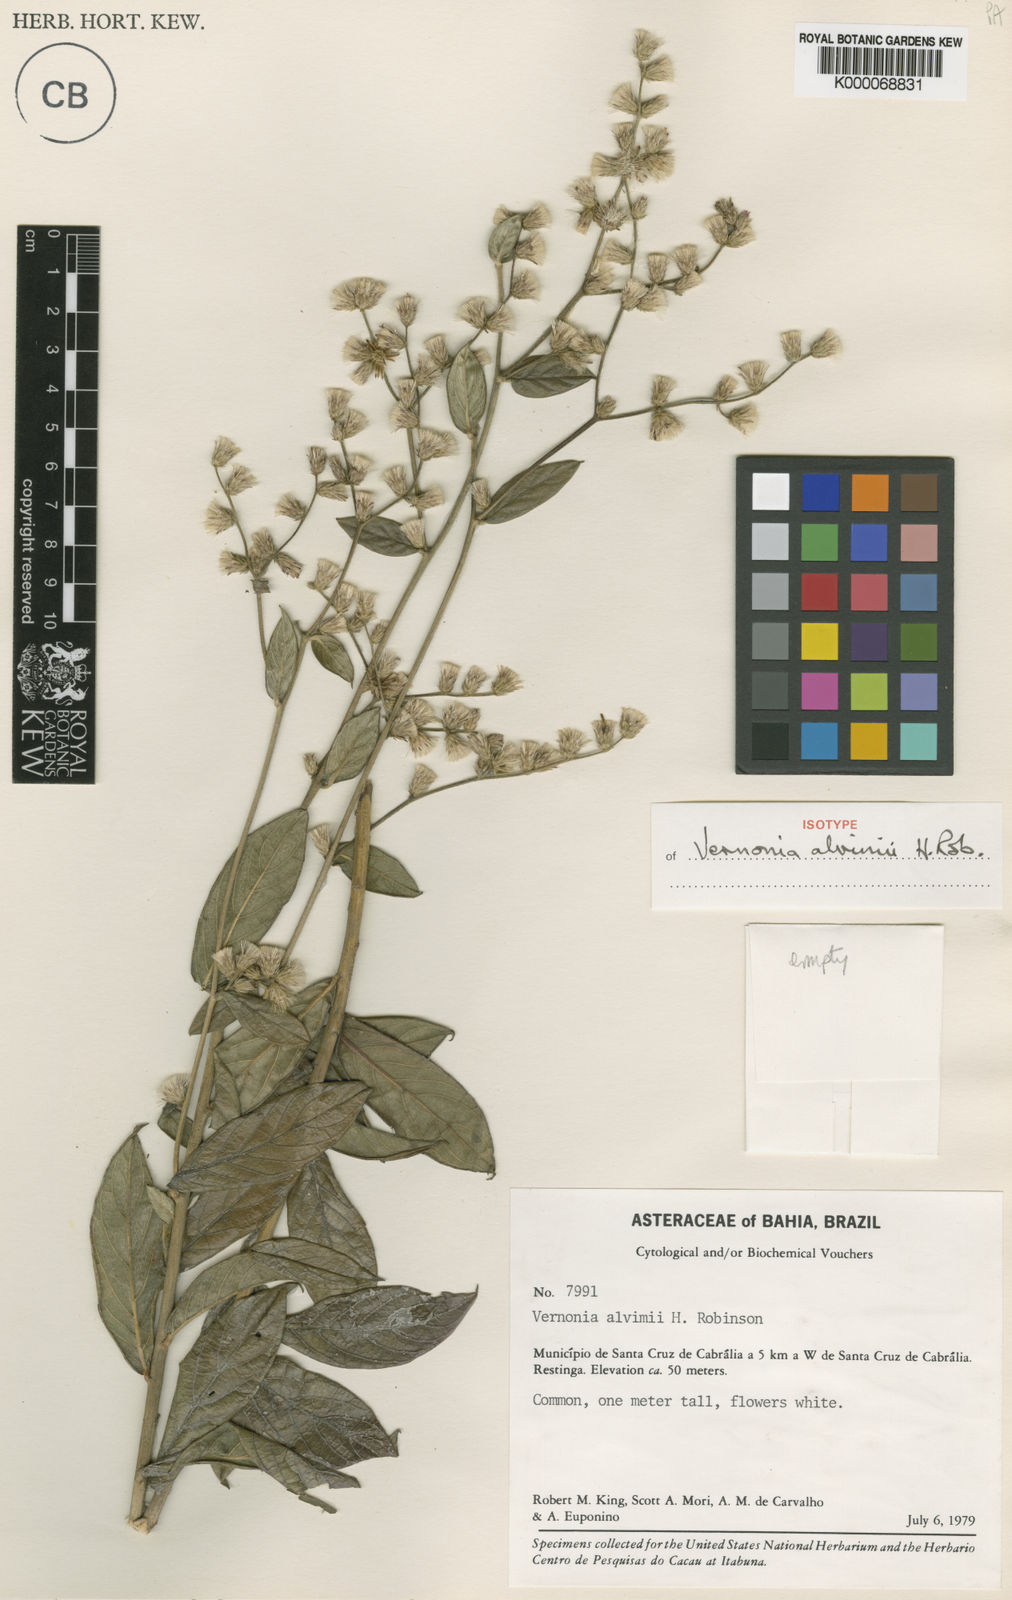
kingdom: Plantae
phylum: Tracheophyta
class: Magnoliopsida
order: Asterales
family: Asteraceae
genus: Lepidaploa
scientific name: Lepidaploa alvimii
